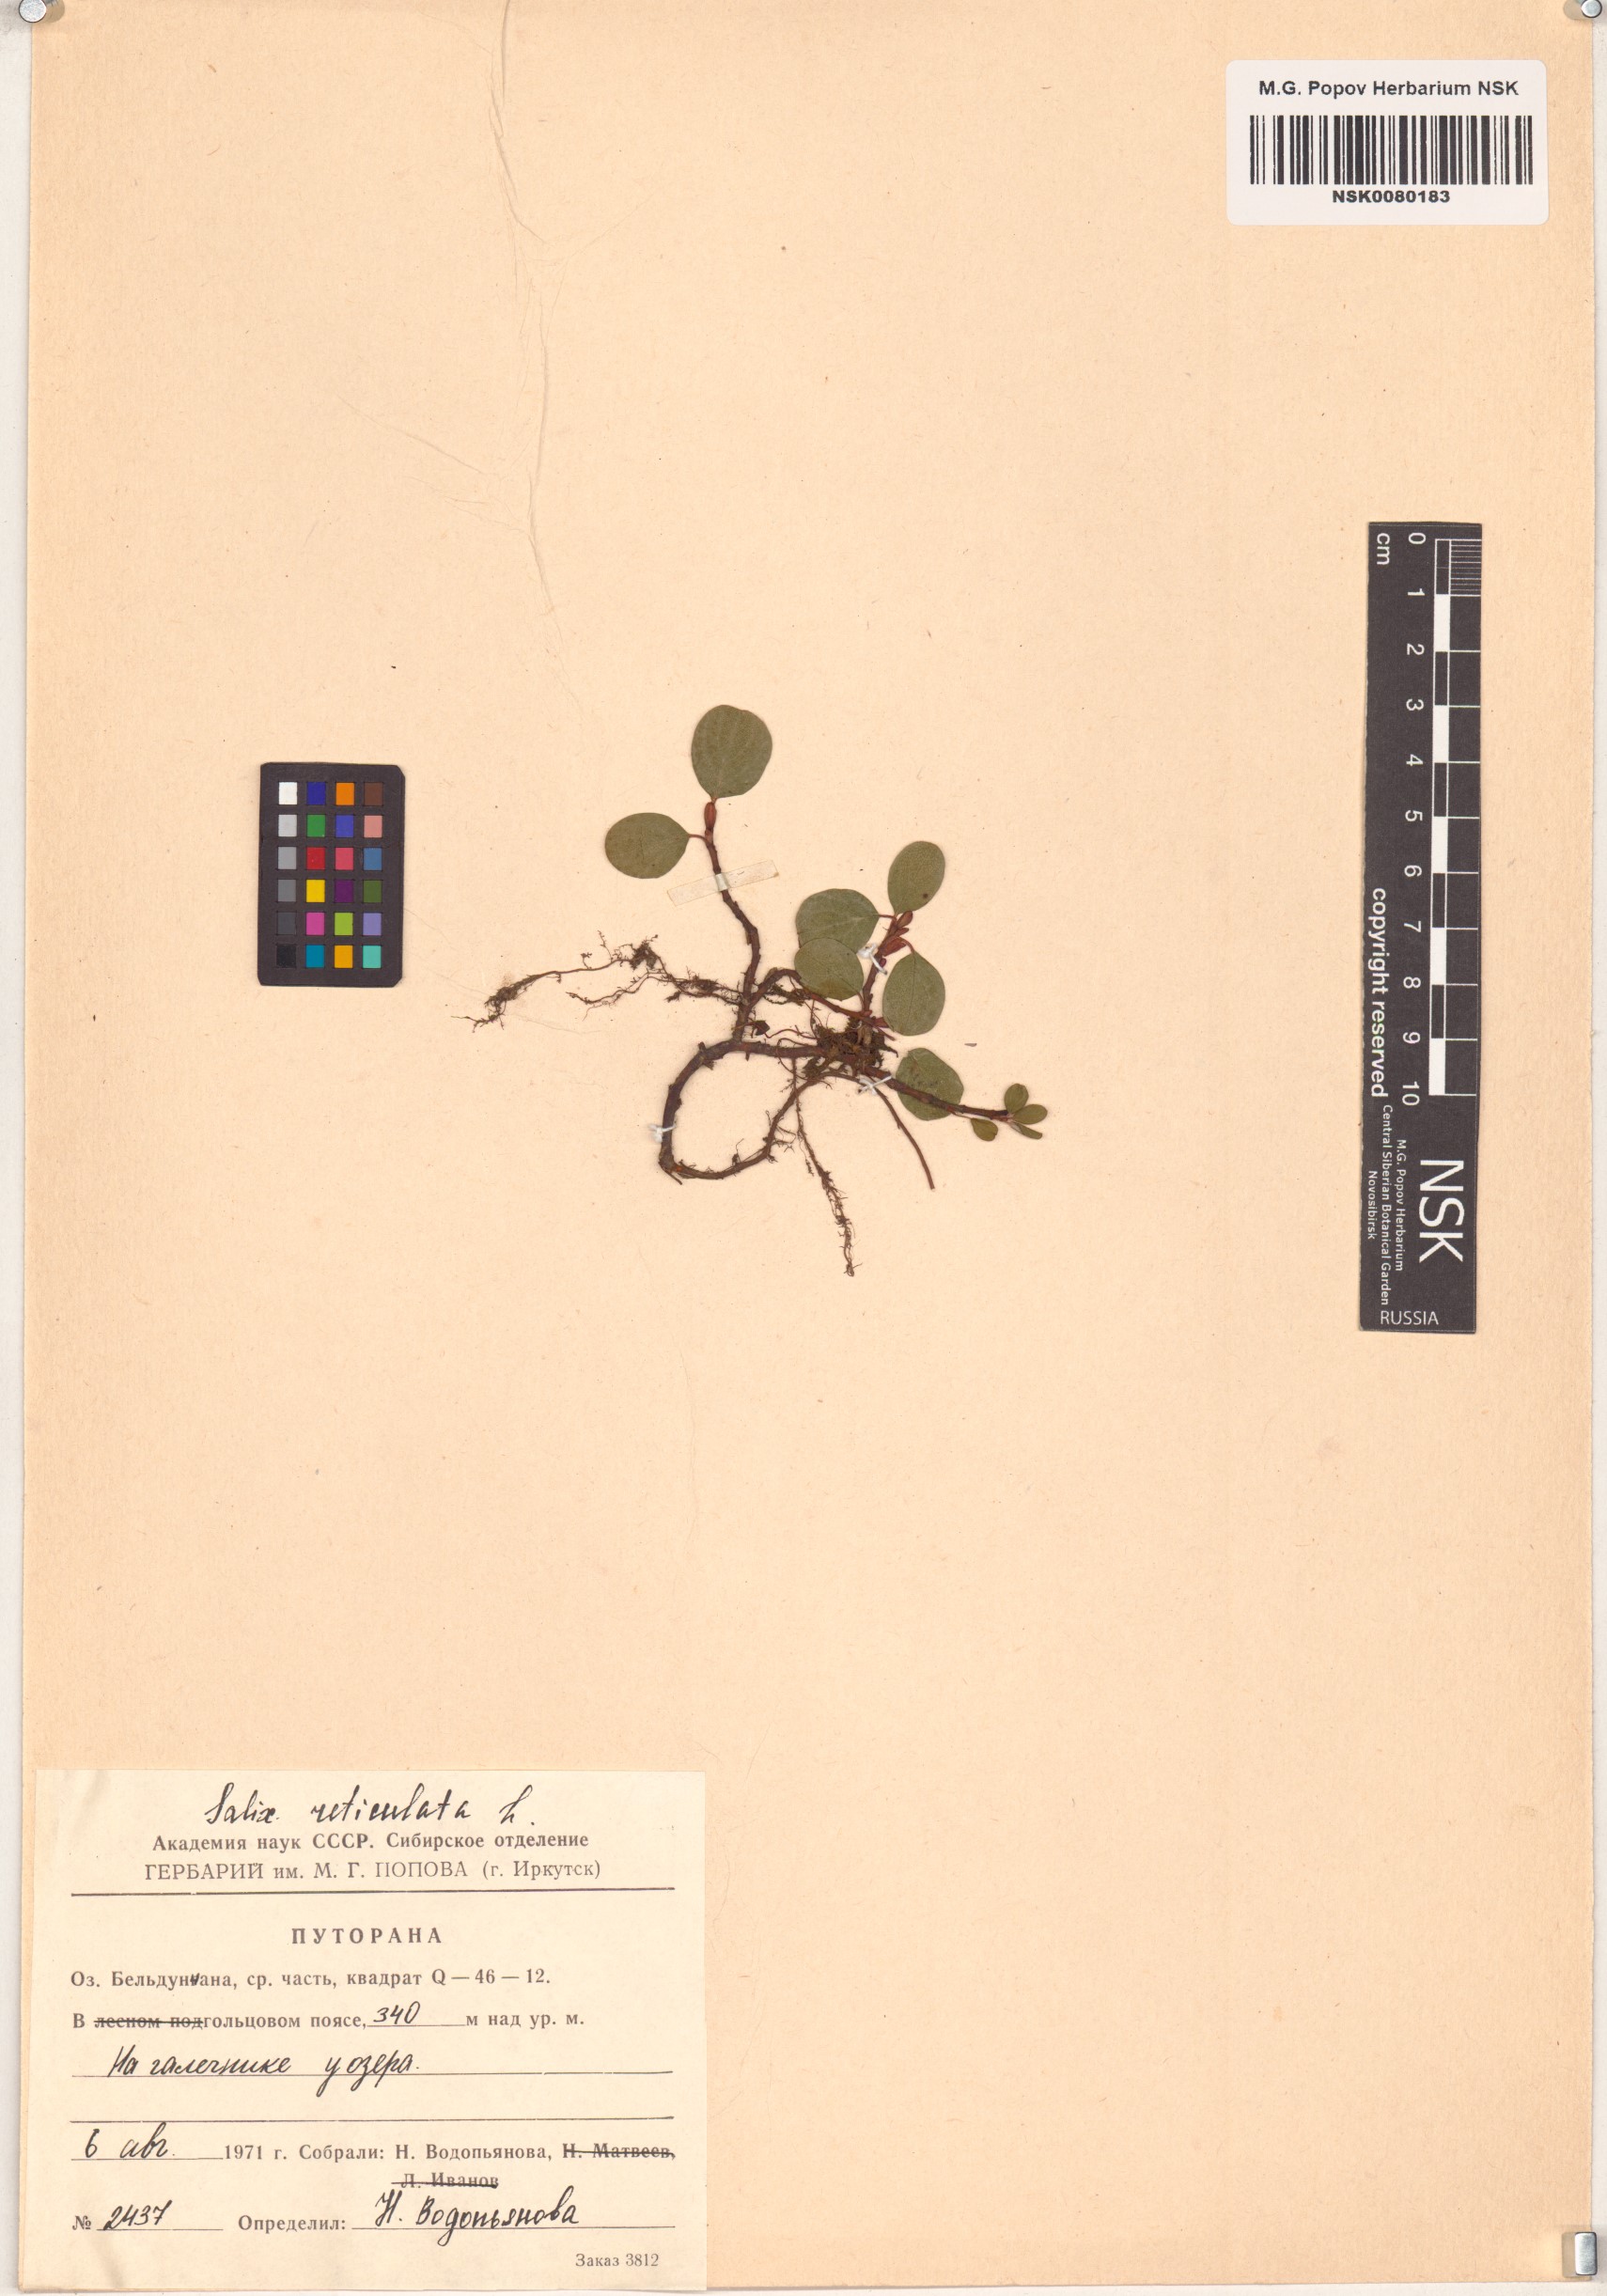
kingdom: Plantae
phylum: Tracheophyta
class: Magnoliopsida
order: Malpighiales
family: Salicaceae
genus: Salix
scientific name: Salix reticulata
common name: Net-leaved willow
